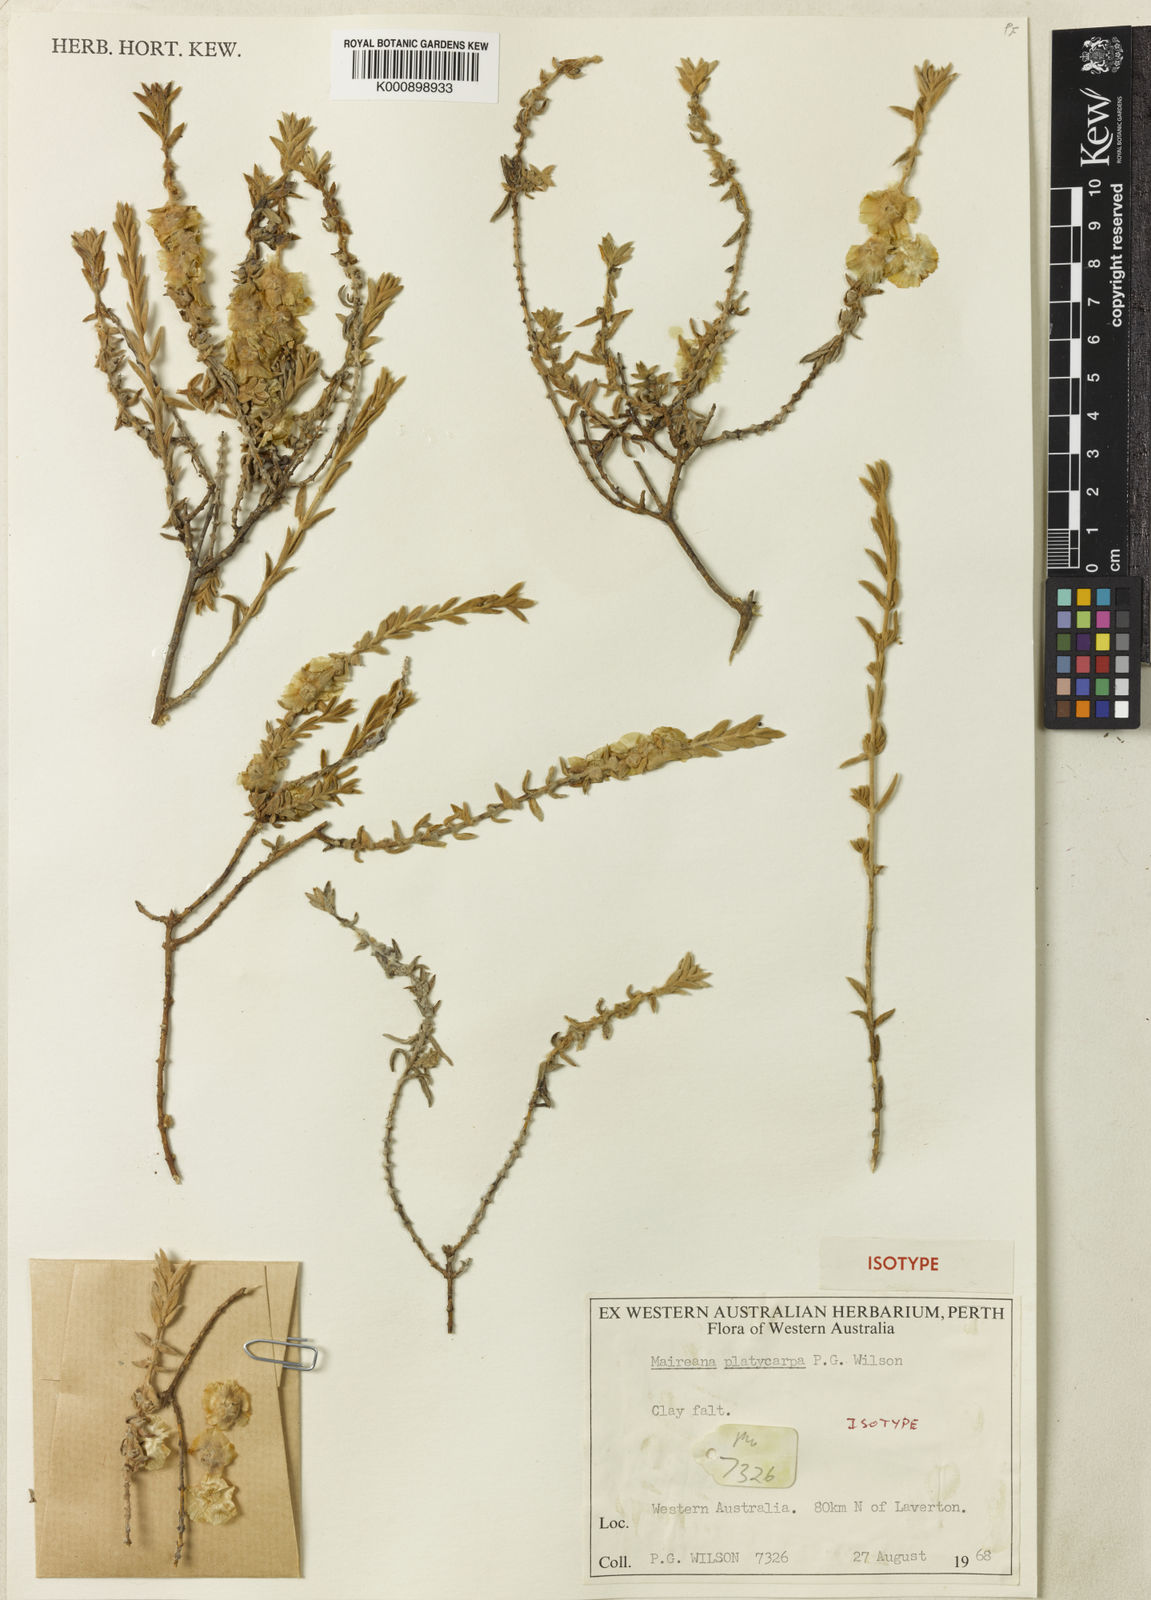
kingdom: Plantae
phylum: Tracheophyta
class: Magnoliopsida
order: Caryophyllales
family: Amaranthaceae
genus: Maireana
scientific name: Maireana platycarpa
